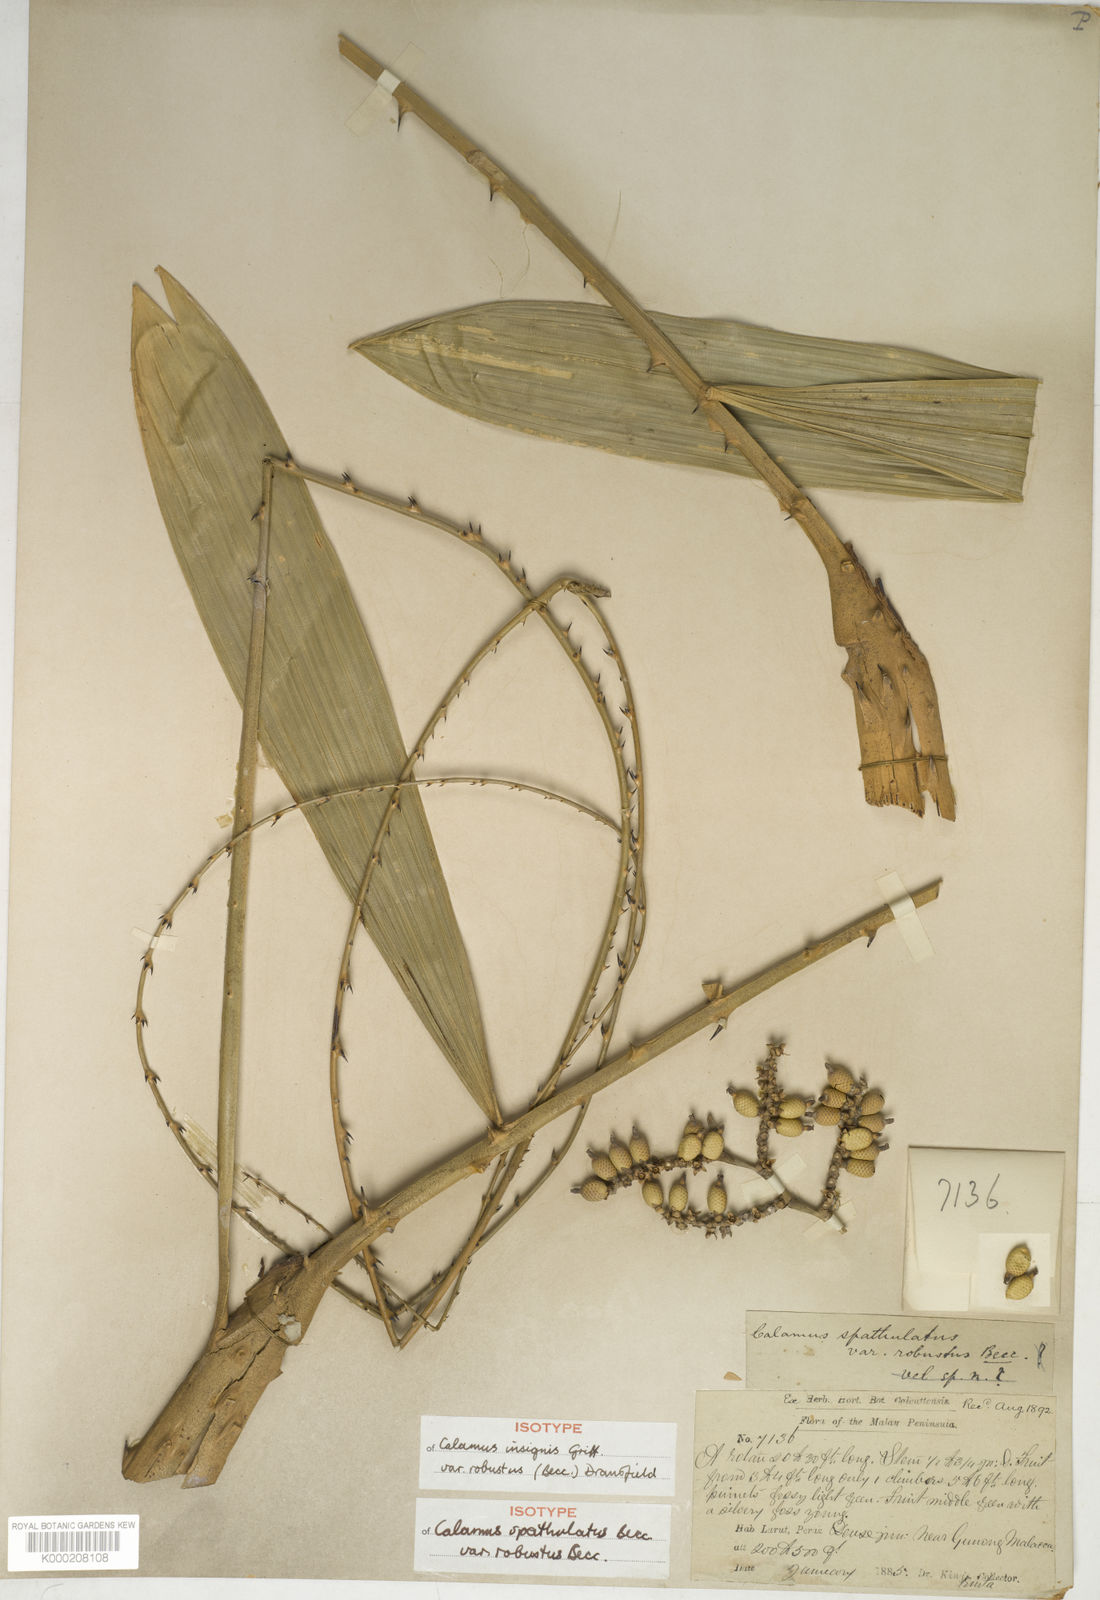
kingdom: Plantae
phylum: Tracheophyta
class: Liliopsida
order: Arecales
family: Arecaceae
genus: Calamus
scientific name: Calamus insignis
